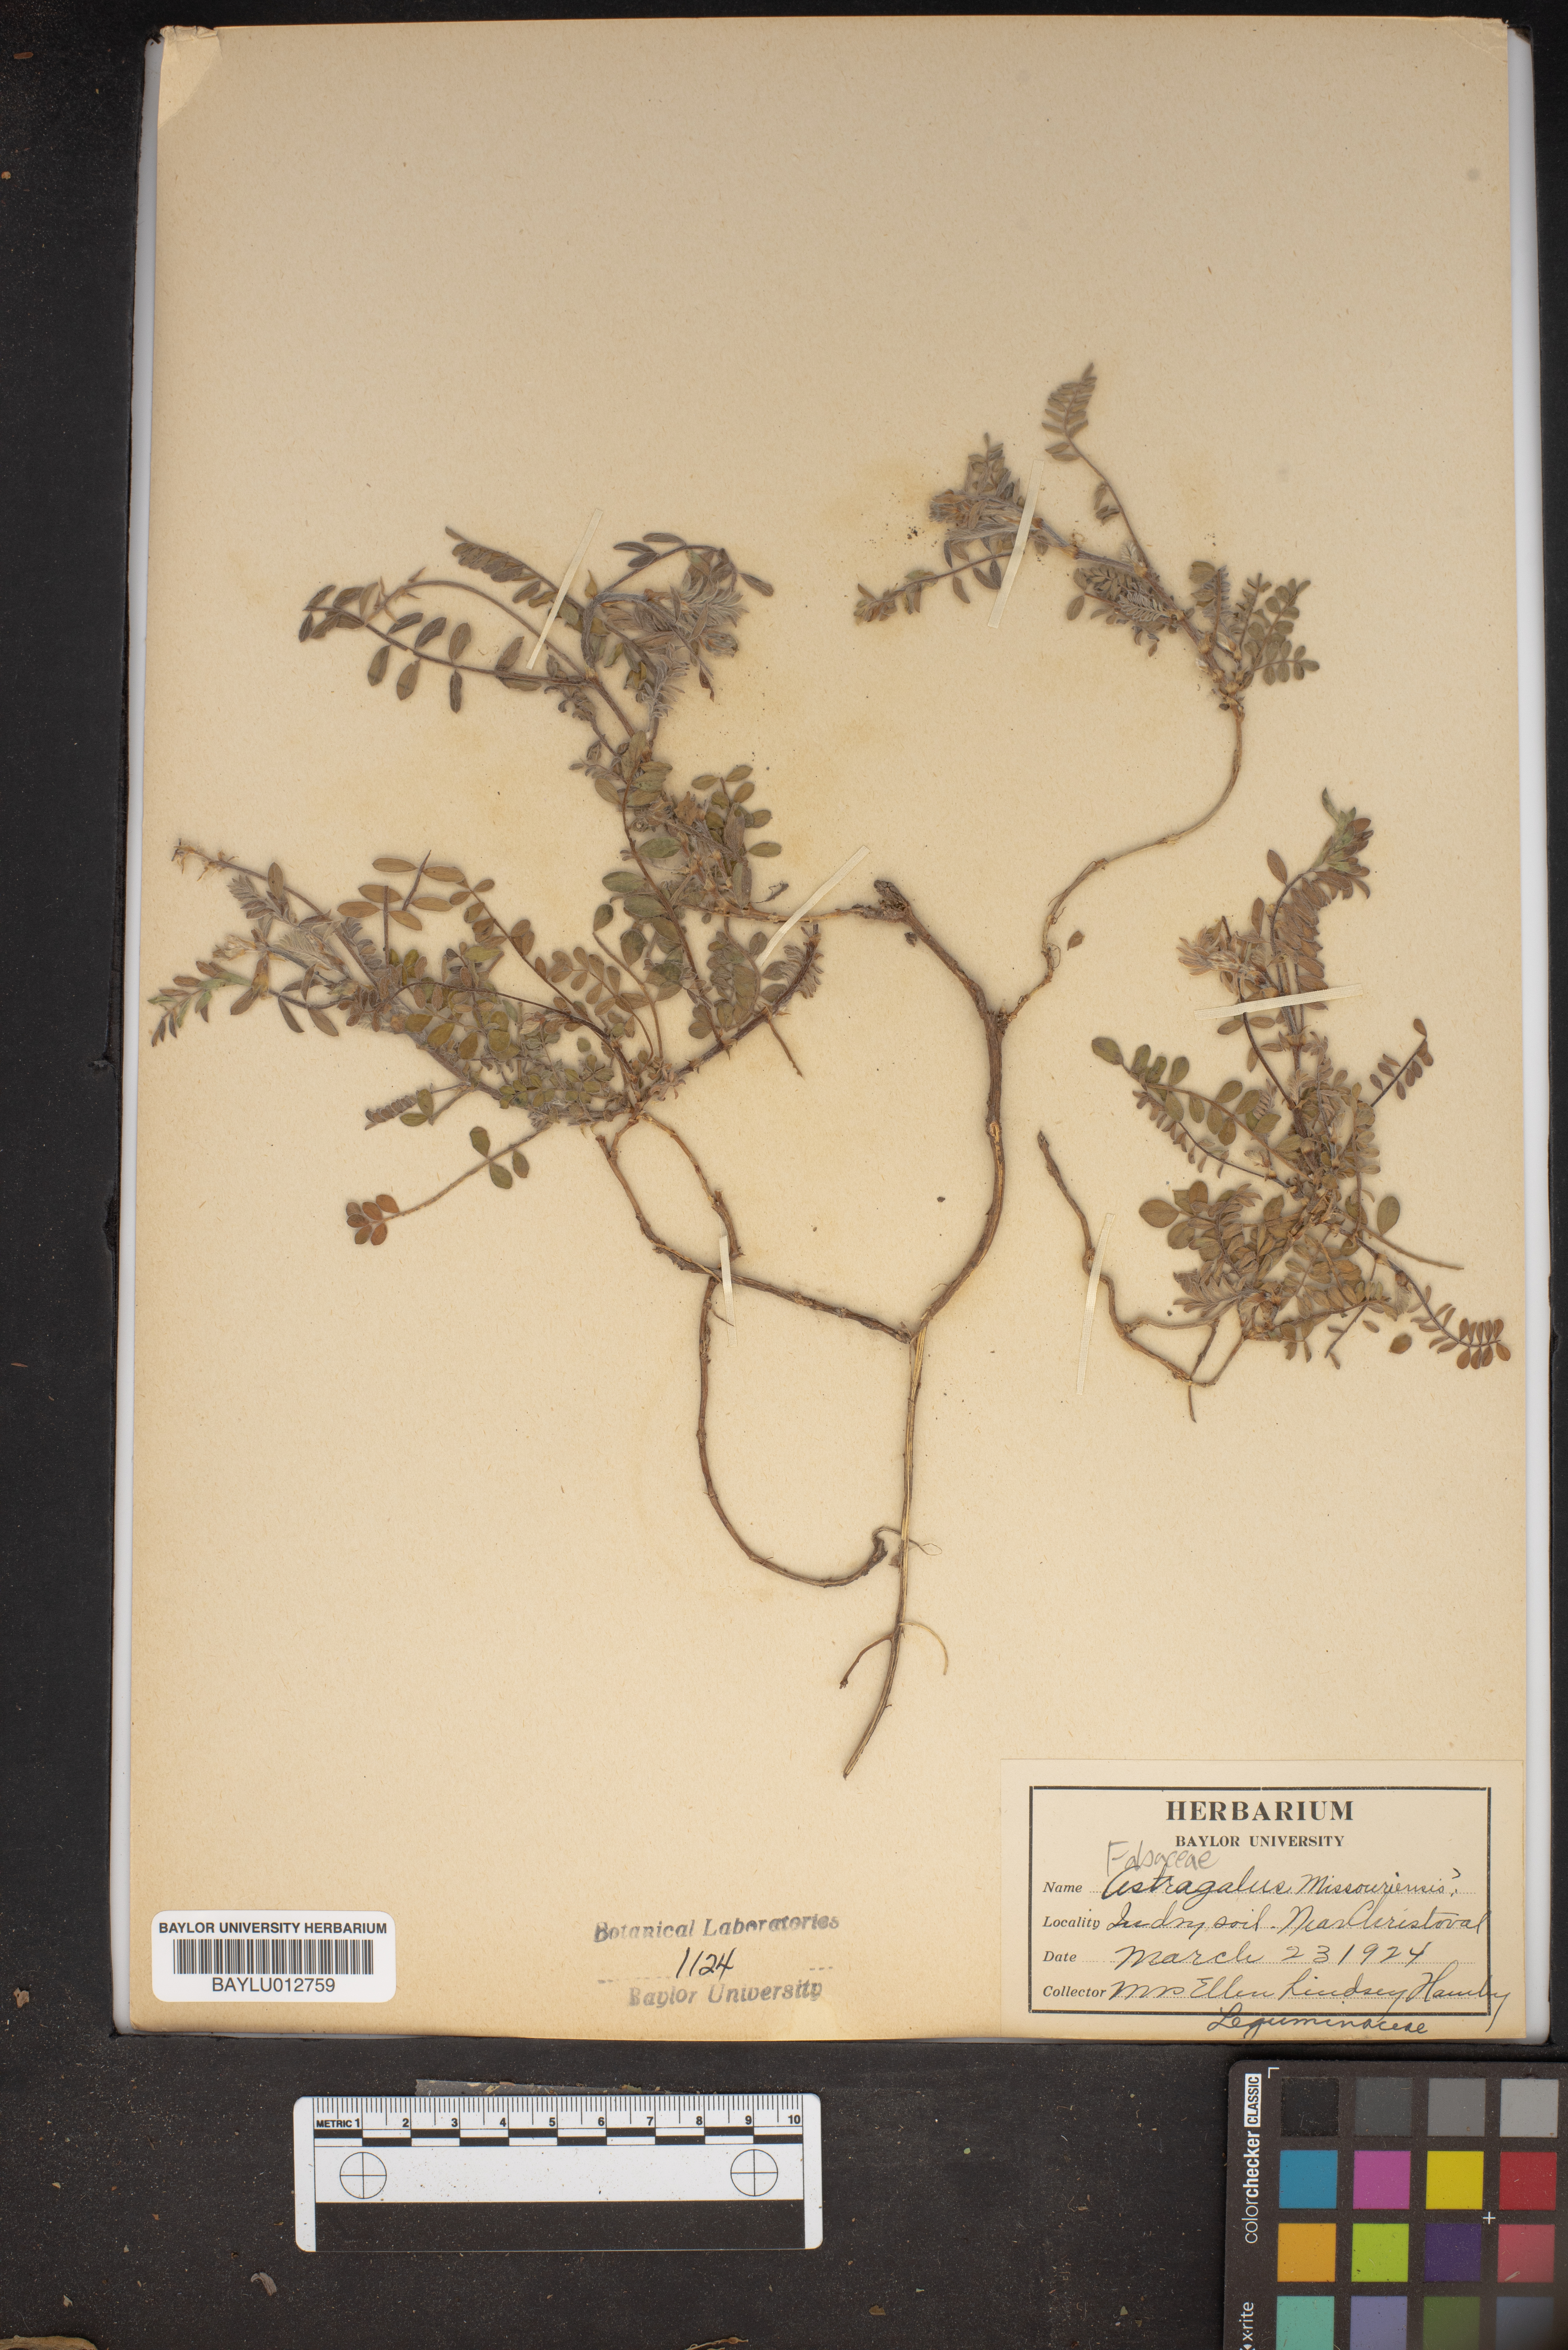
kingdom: Plantae
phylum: Tracheophyta
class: Magnoliopsida
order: Fabales
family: Fabaceae
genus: Astragalus
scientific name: Astragalus missouriensis
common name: Missouri milk-vetch
